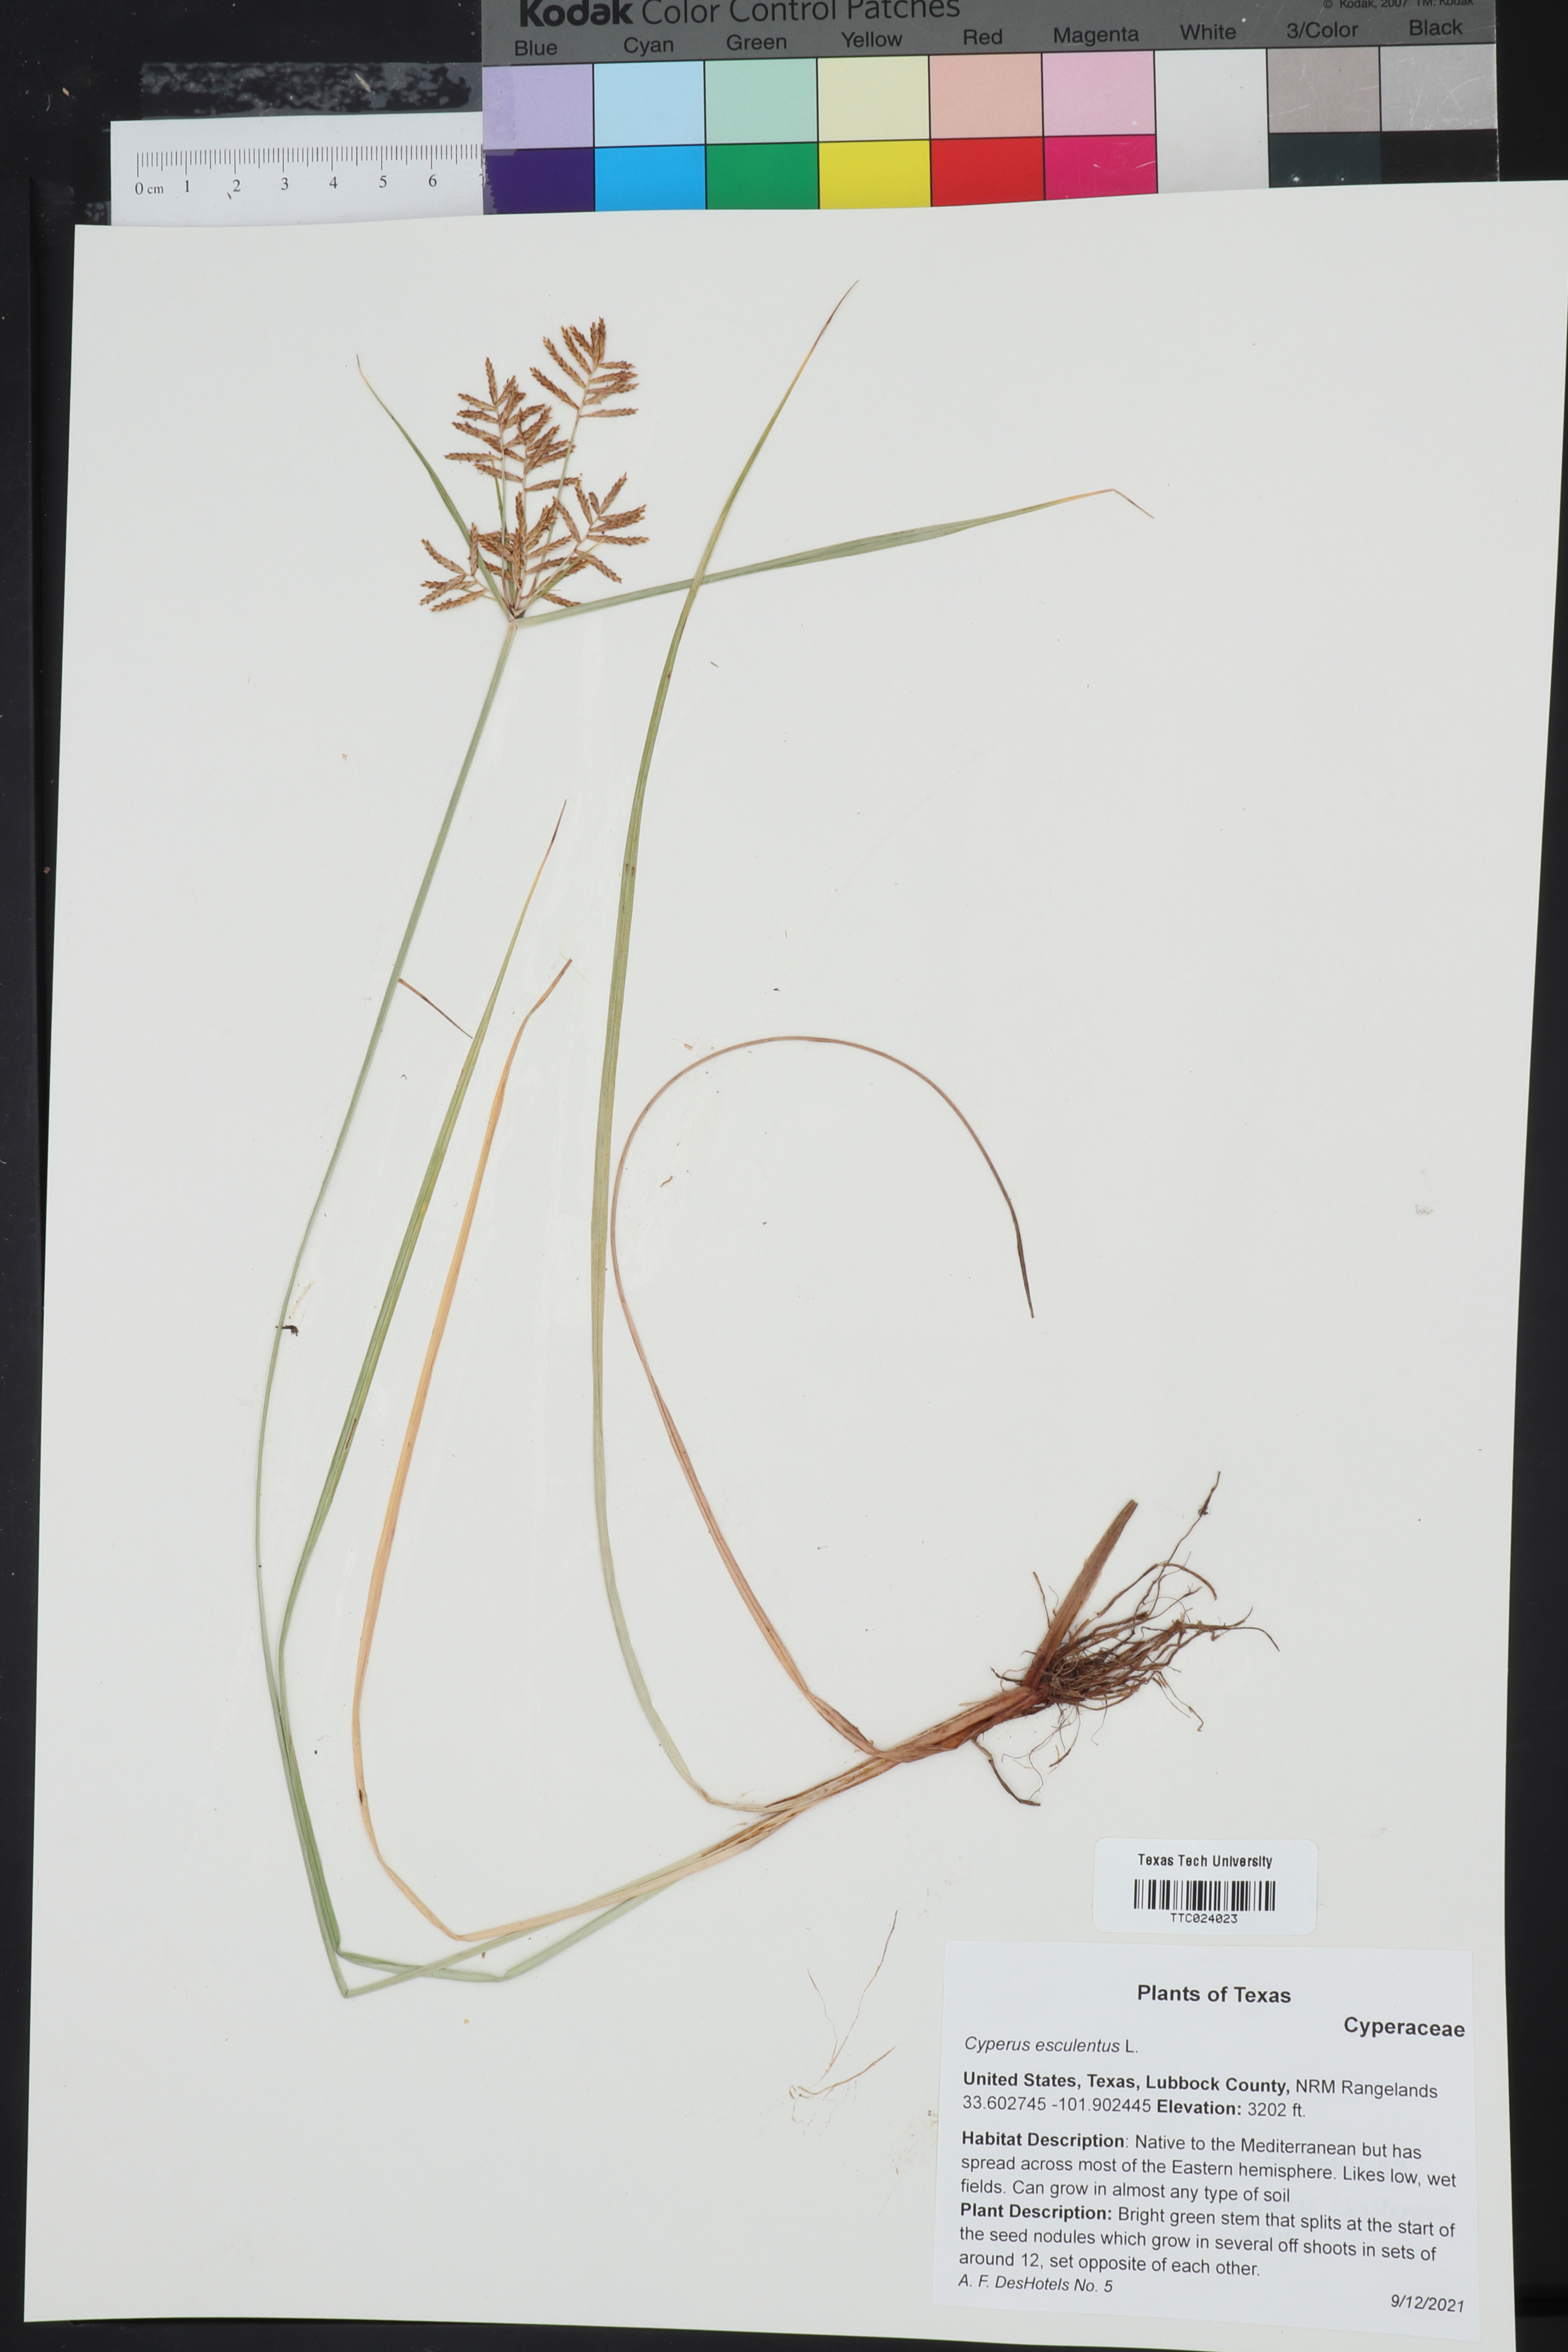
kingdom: Plantae
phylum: Tracheophyta
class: Liliopsida
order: Poales
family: Cyperaceae
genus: Cyperus
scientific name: Cyperus esculentus
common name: Yellow nutsedge
